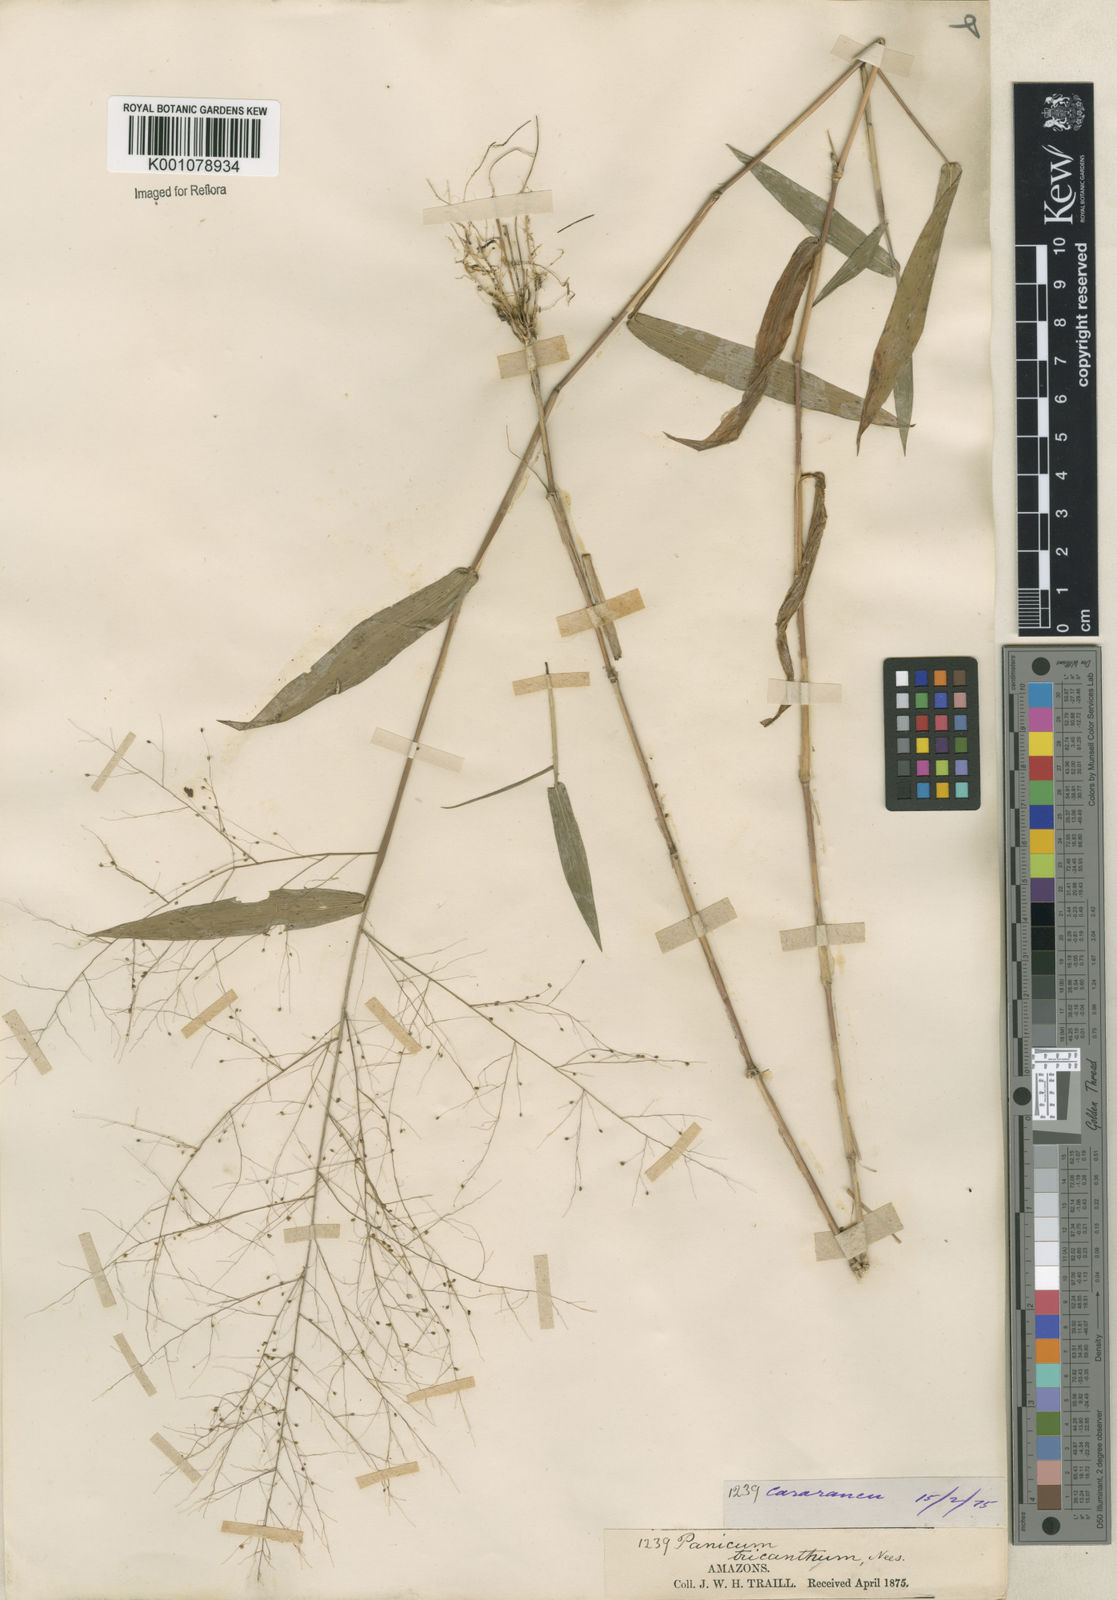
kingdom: Plantae
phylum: Tracheophyta
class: Liliopsida
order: Poales
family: Poaceae
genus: Panicum
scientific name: Panicum
